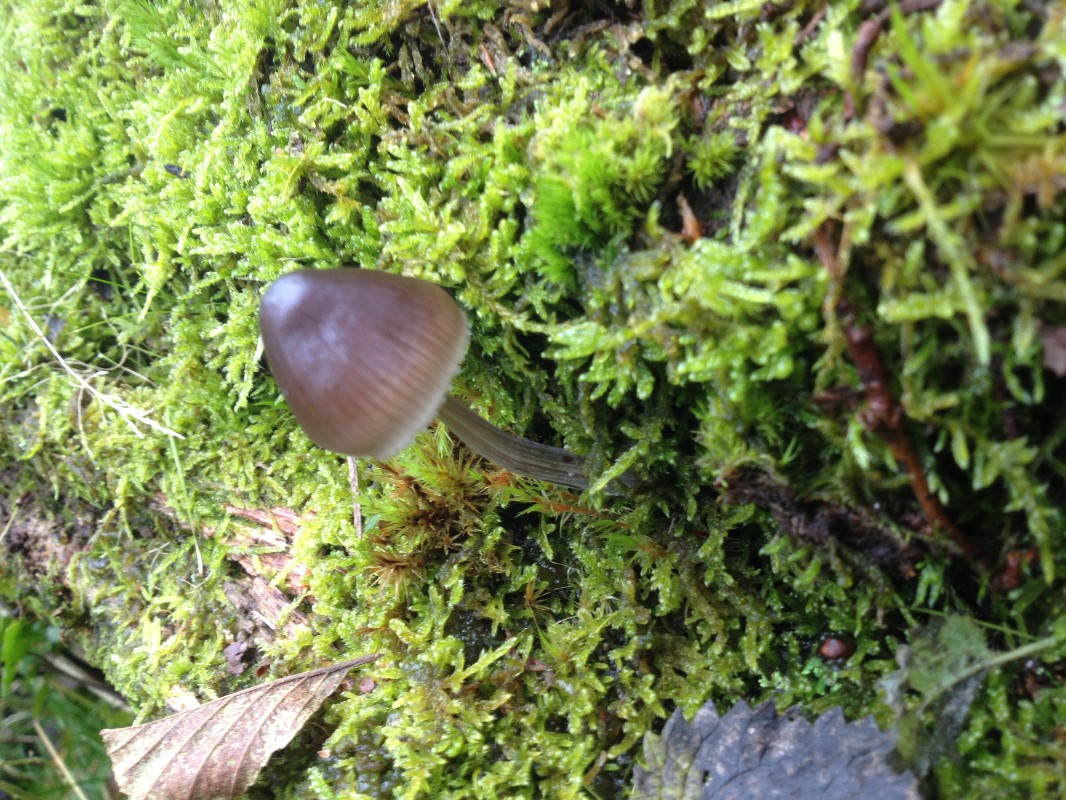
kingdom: Fungi
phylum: Basidiomycota
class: Agaricomycetes
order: Agaricales
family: Mycenaceae
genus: Mycena
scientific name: Mycena polygramma
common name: mangestribet huesvamp
